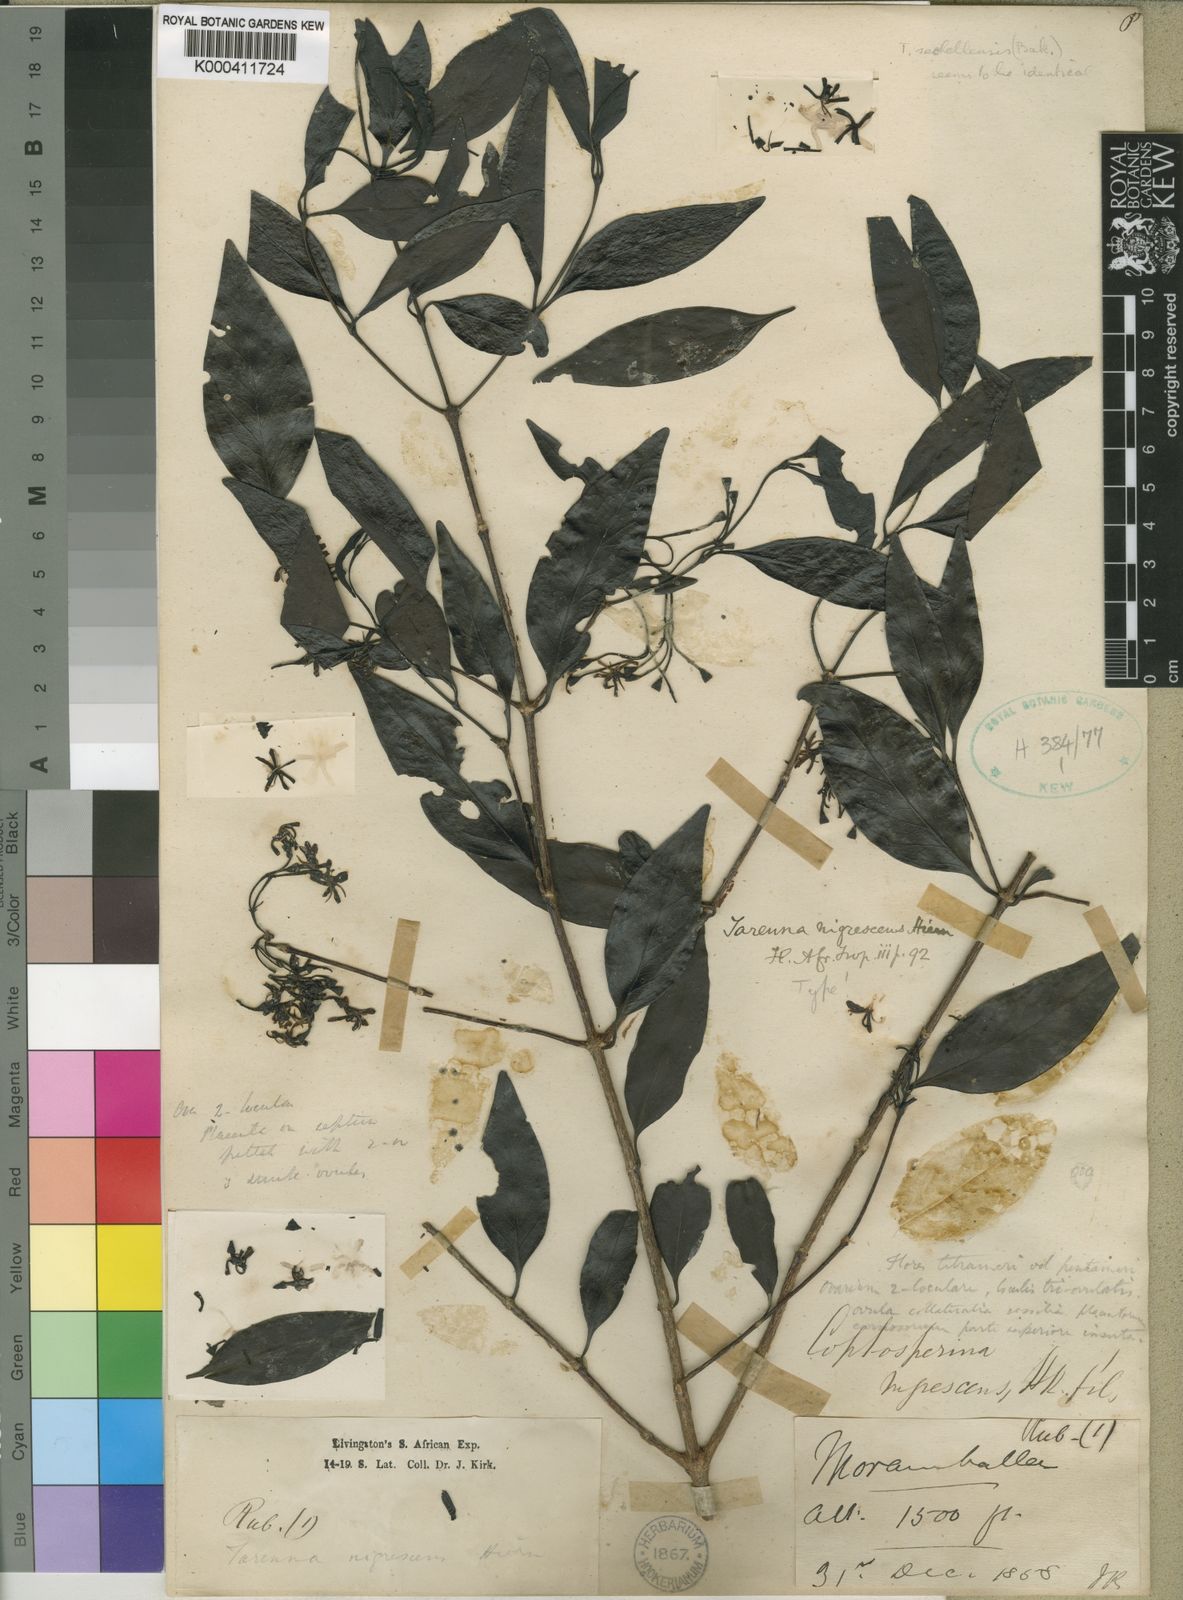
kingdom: Plantae
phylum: Tracheophyta
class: Magnoliopsida
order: Gentianales
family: Rubiaceae
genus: Coptosperma
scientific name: Coptosperma nigrescens
